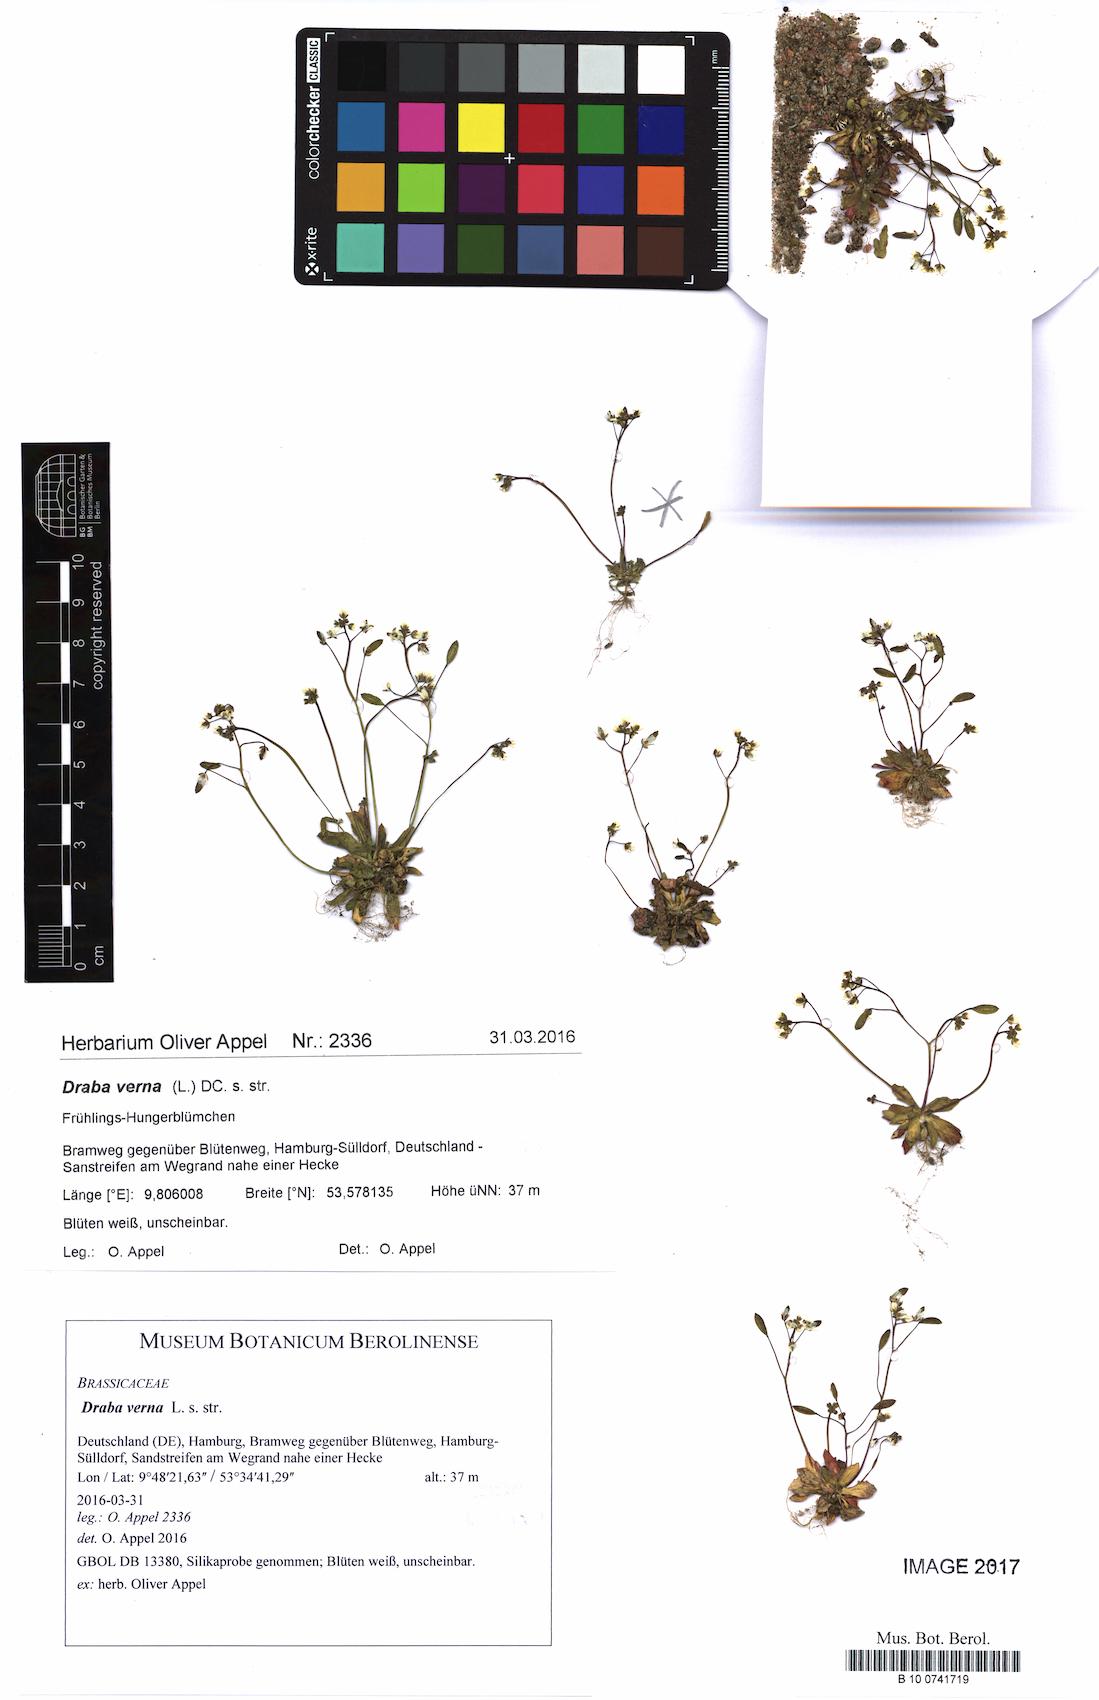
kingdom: Plantae
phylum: Tracheophyta
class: Magnoliopsida
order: Brassicales
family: Brassicaceae
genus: Draba
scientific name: Draba verna
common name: Spring draba
